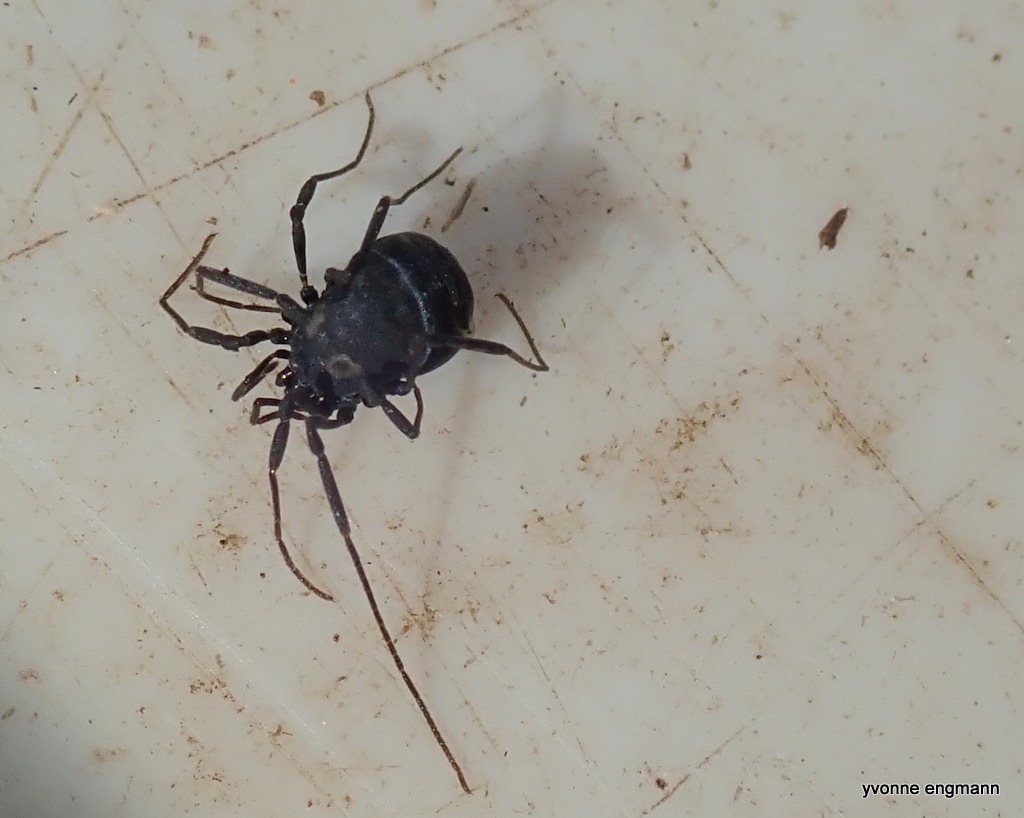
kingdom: Animalia
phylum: Arthropoda
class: Arachnida
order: Opiliones
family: Nemastomatidae
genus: Nemastoma
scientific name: Nemastoma lugubre
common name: Østlig dødningehovedmejer
